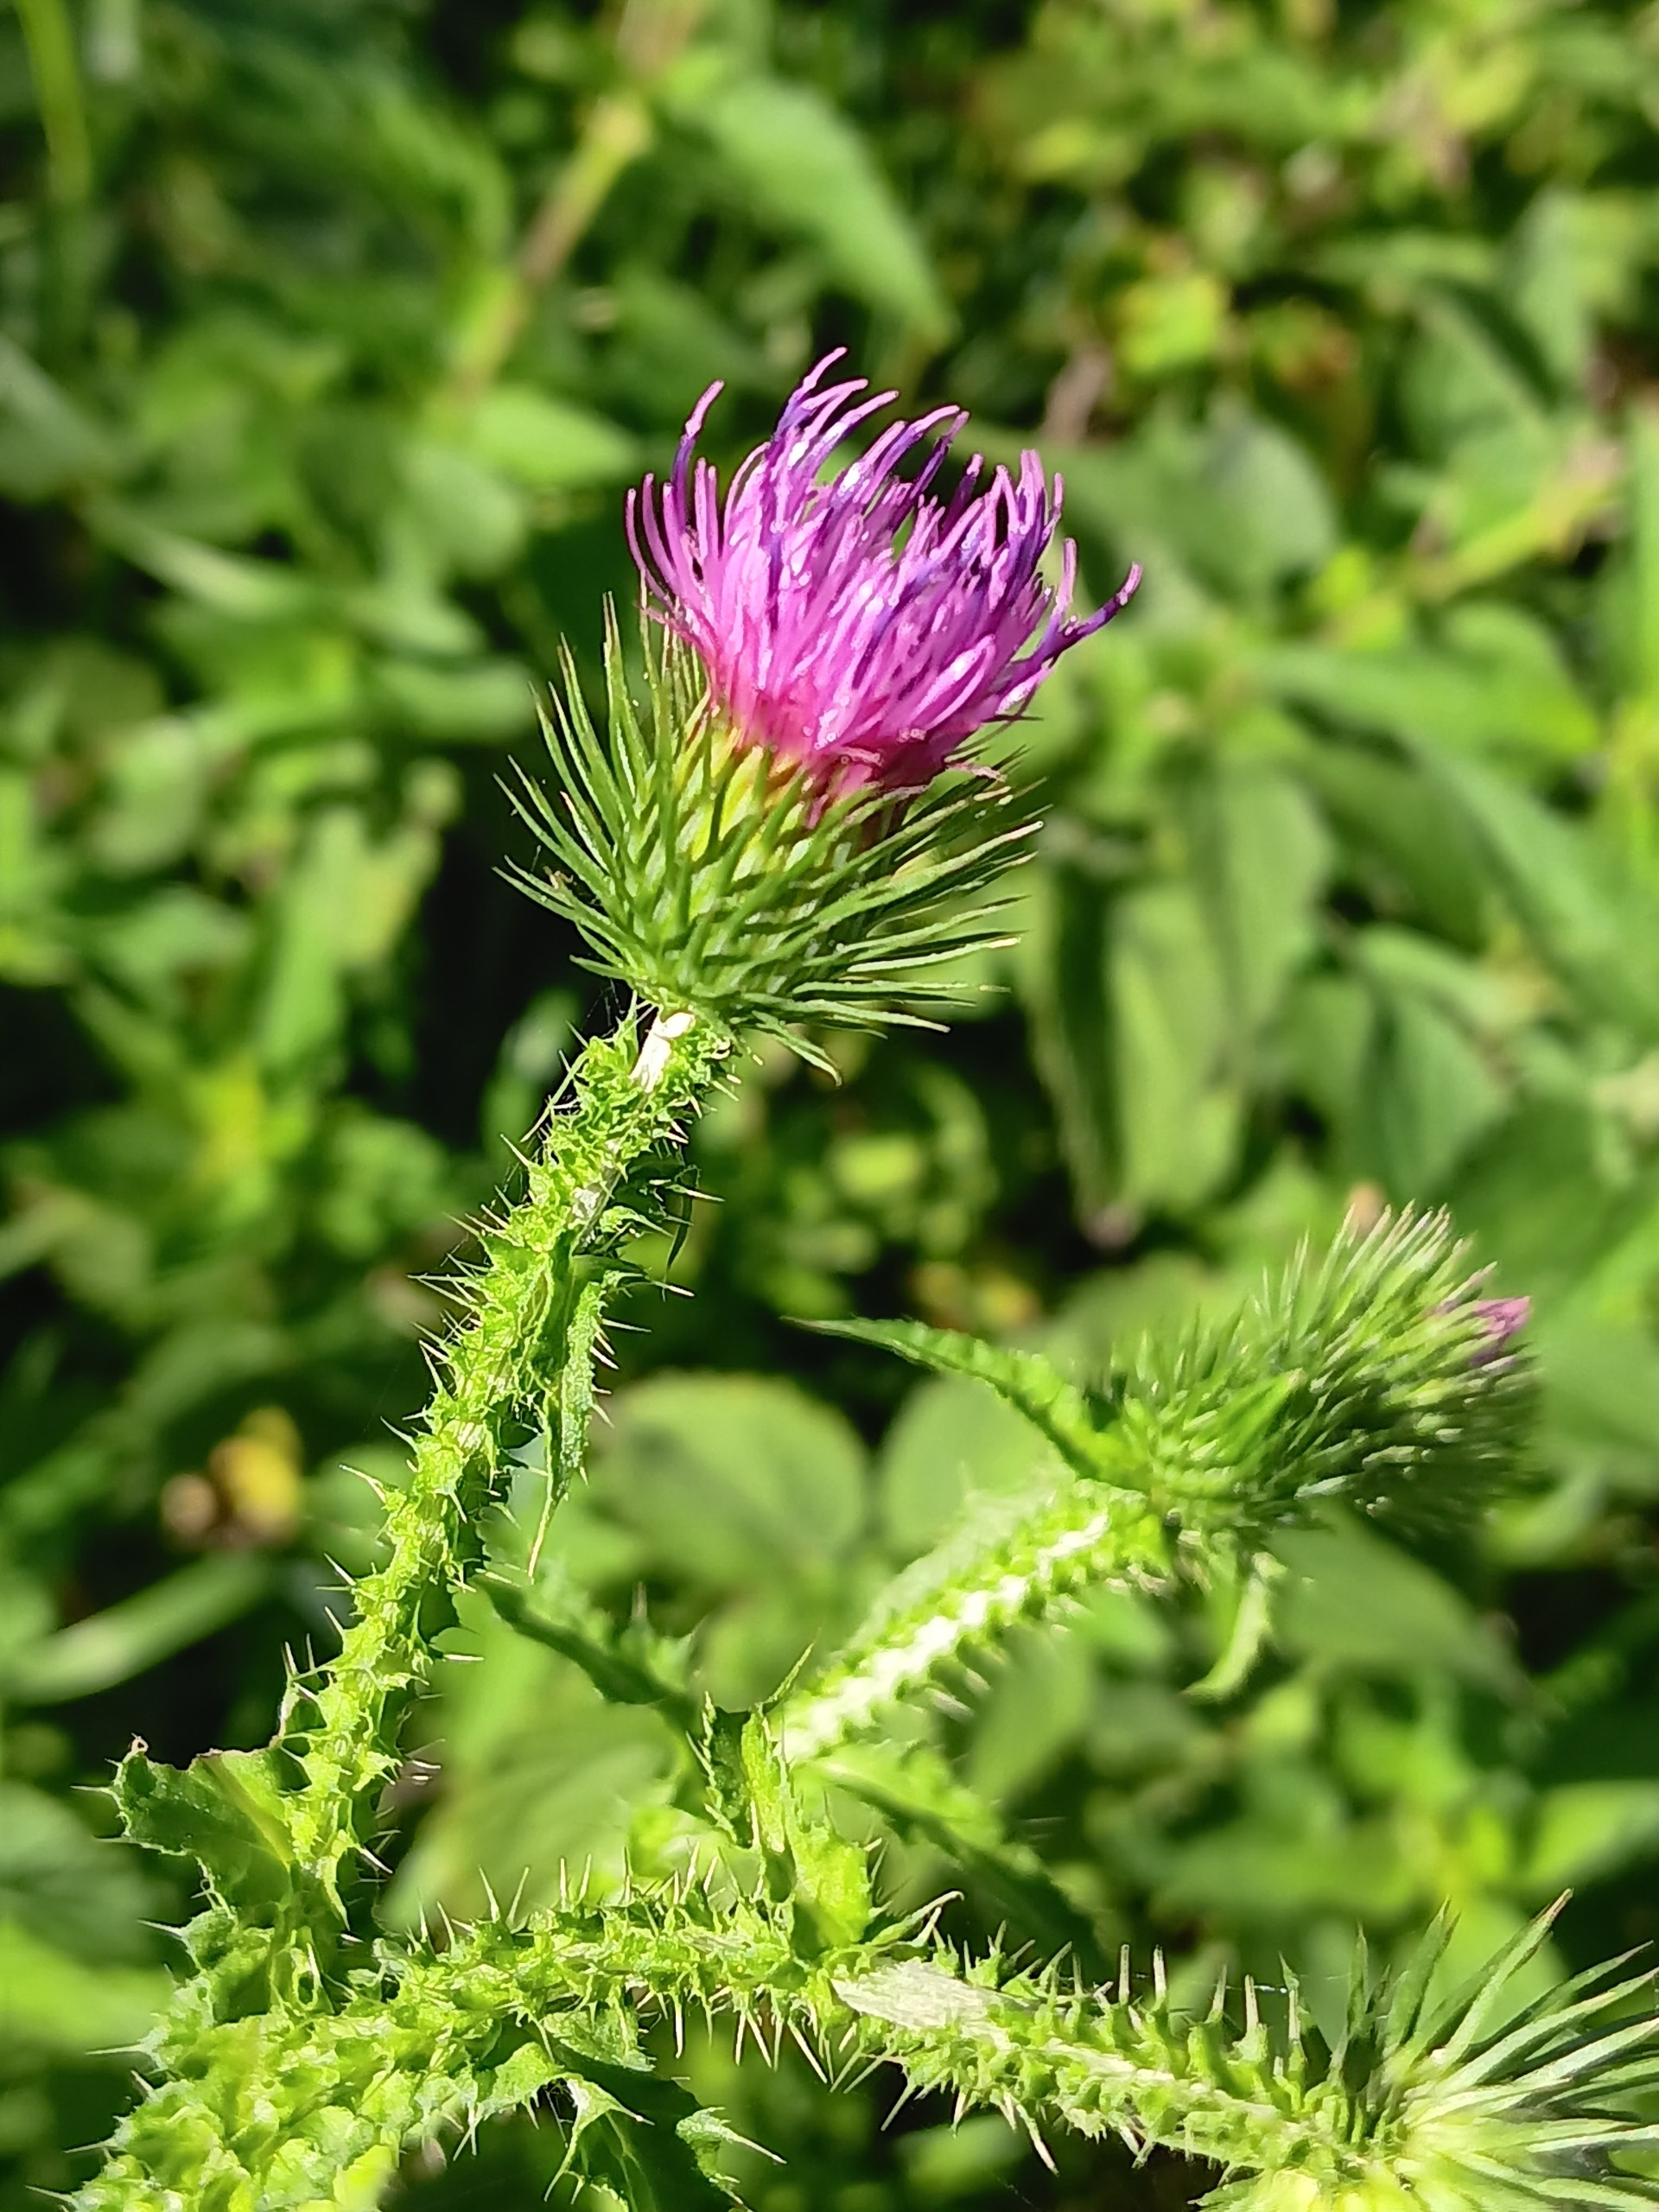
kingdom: Plantae
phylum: Tracheophyta
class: Magnoliopsida
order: Asterales
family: Asteraceae
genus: Carduus
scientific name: Carduus crispus
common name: Kruset tidsel
